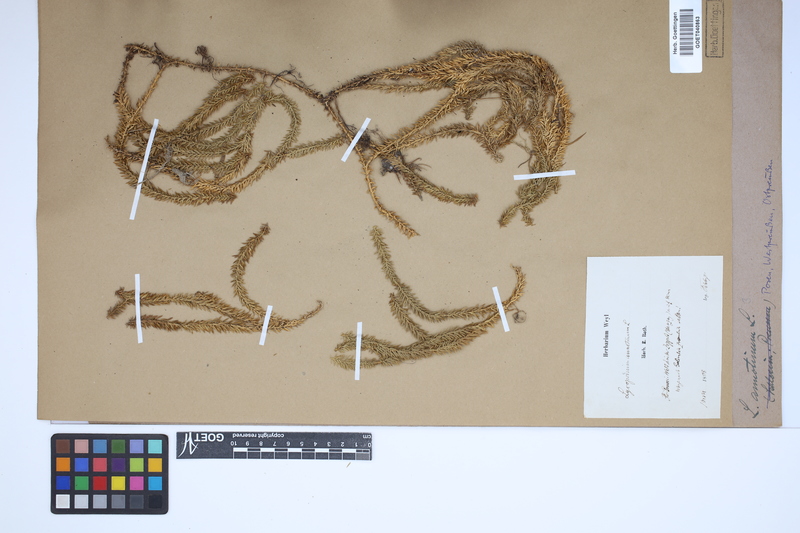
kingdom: Plantae
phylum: Tracheophyta
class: Lycopodiopsida
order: Lycopodiales
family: Lycopodiaceae
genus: Spinulum
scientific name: Spinulum annotinum
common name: Interrupted club-moss
